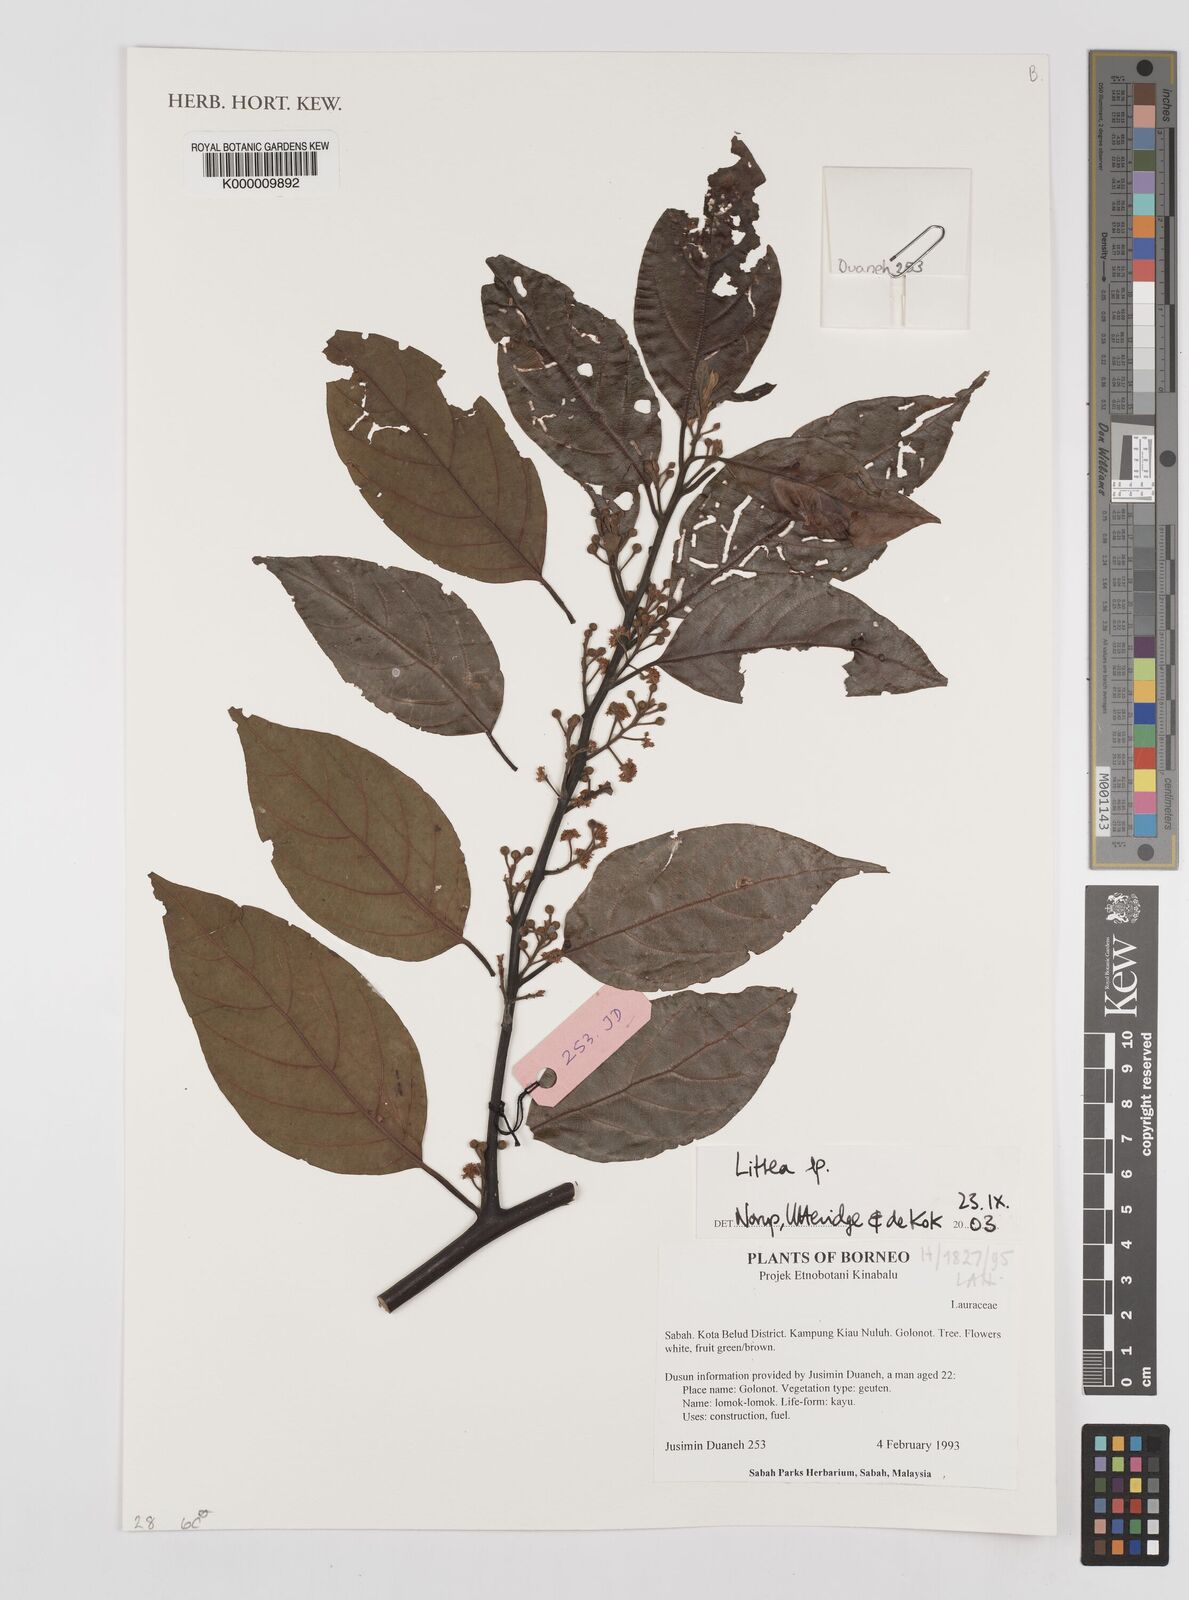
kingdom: Plantae
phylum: Tracheophyta
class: Magnoliopsida
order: Laurales
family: Lauraceae
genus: Litsea
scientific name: Litsea
